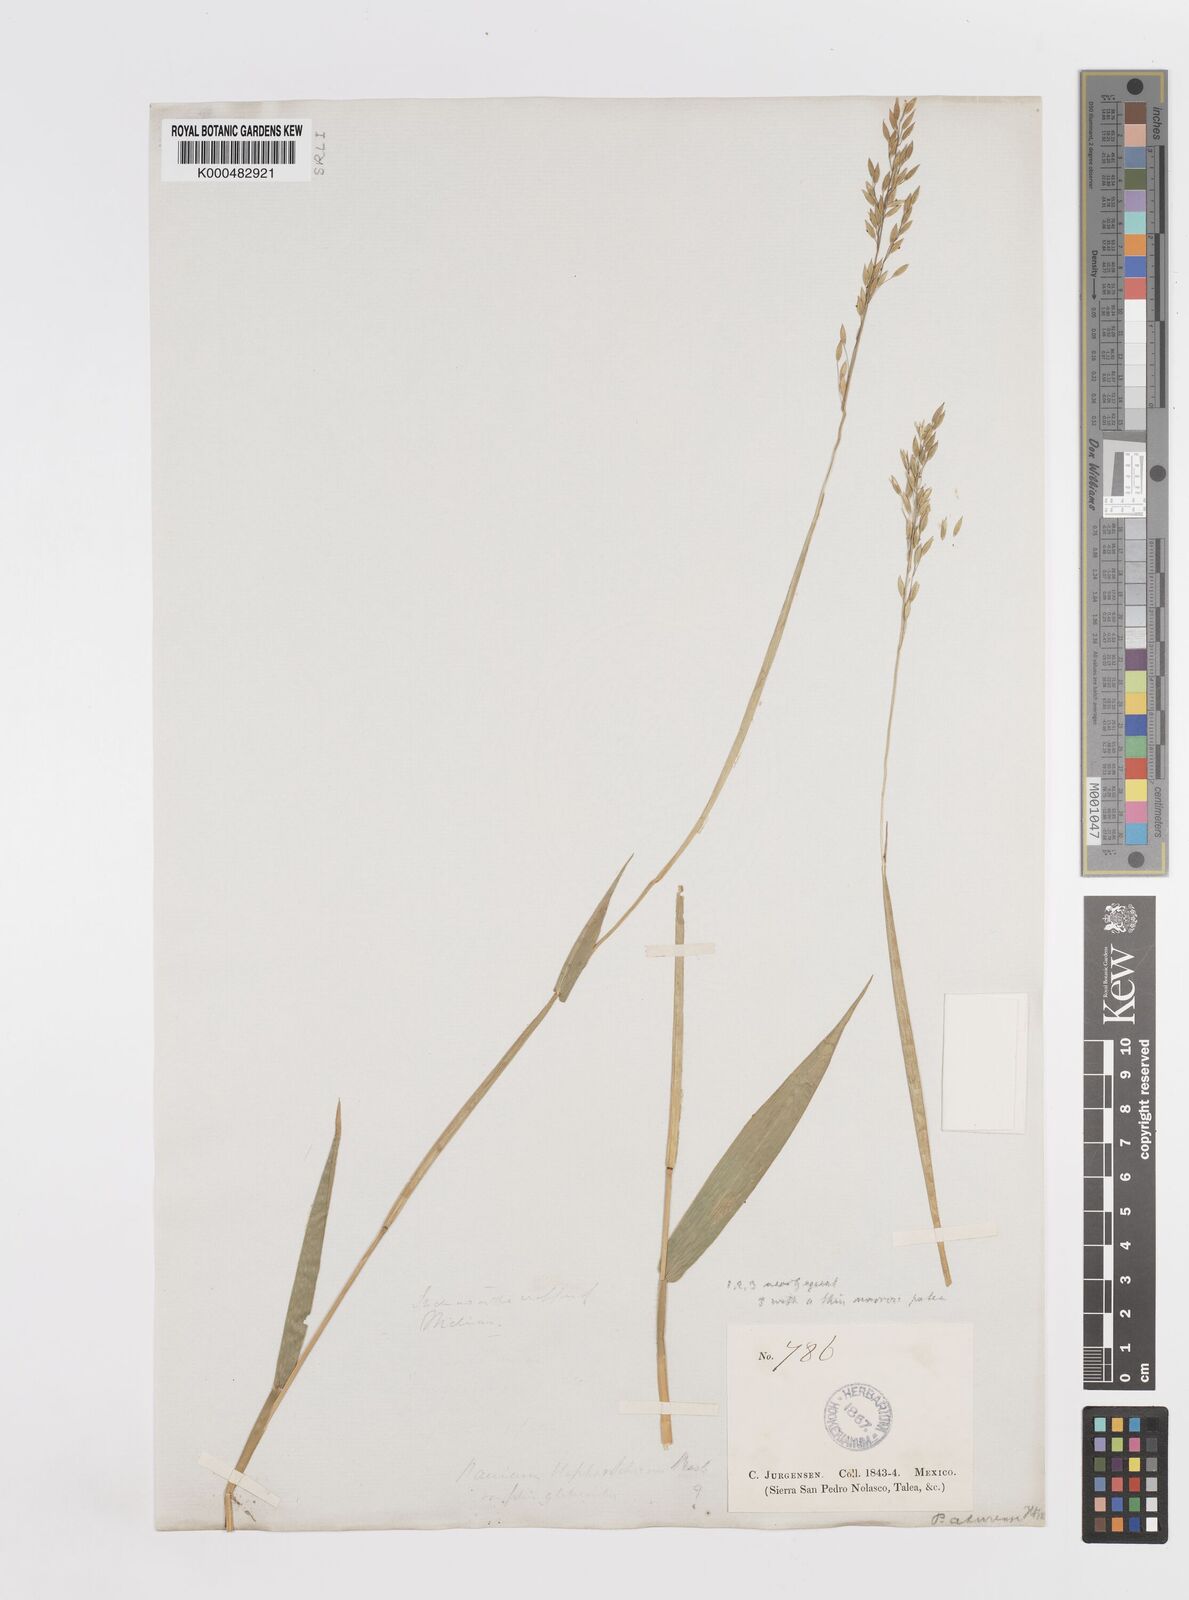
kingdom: Plantae
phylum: Tracheophyta
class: Liliopsida
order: Poales
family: Poaceae
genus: Homolepis
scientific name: Homolepis aturensis
